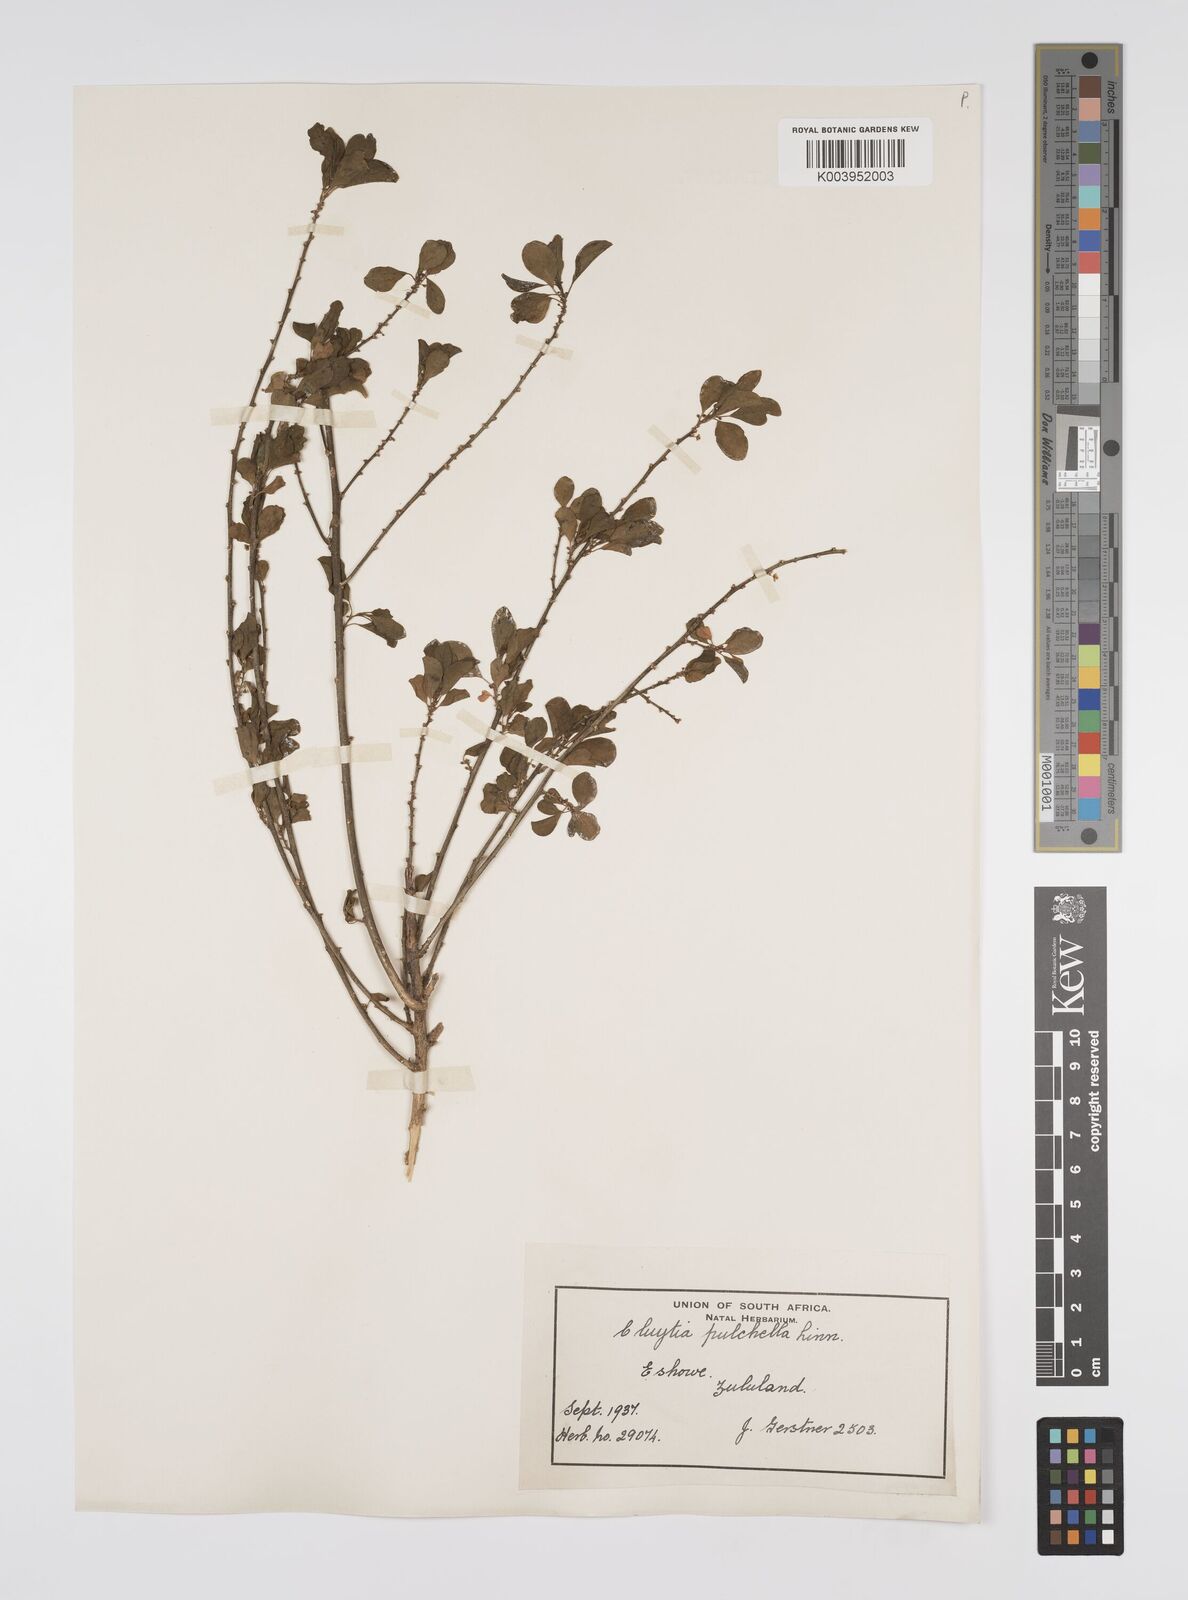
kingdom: Plantae
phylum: Tracheophyta
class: Magnoliopsida
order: Malpighiales
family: Peraceae
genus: Clutia
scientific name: Clutia pulchella
